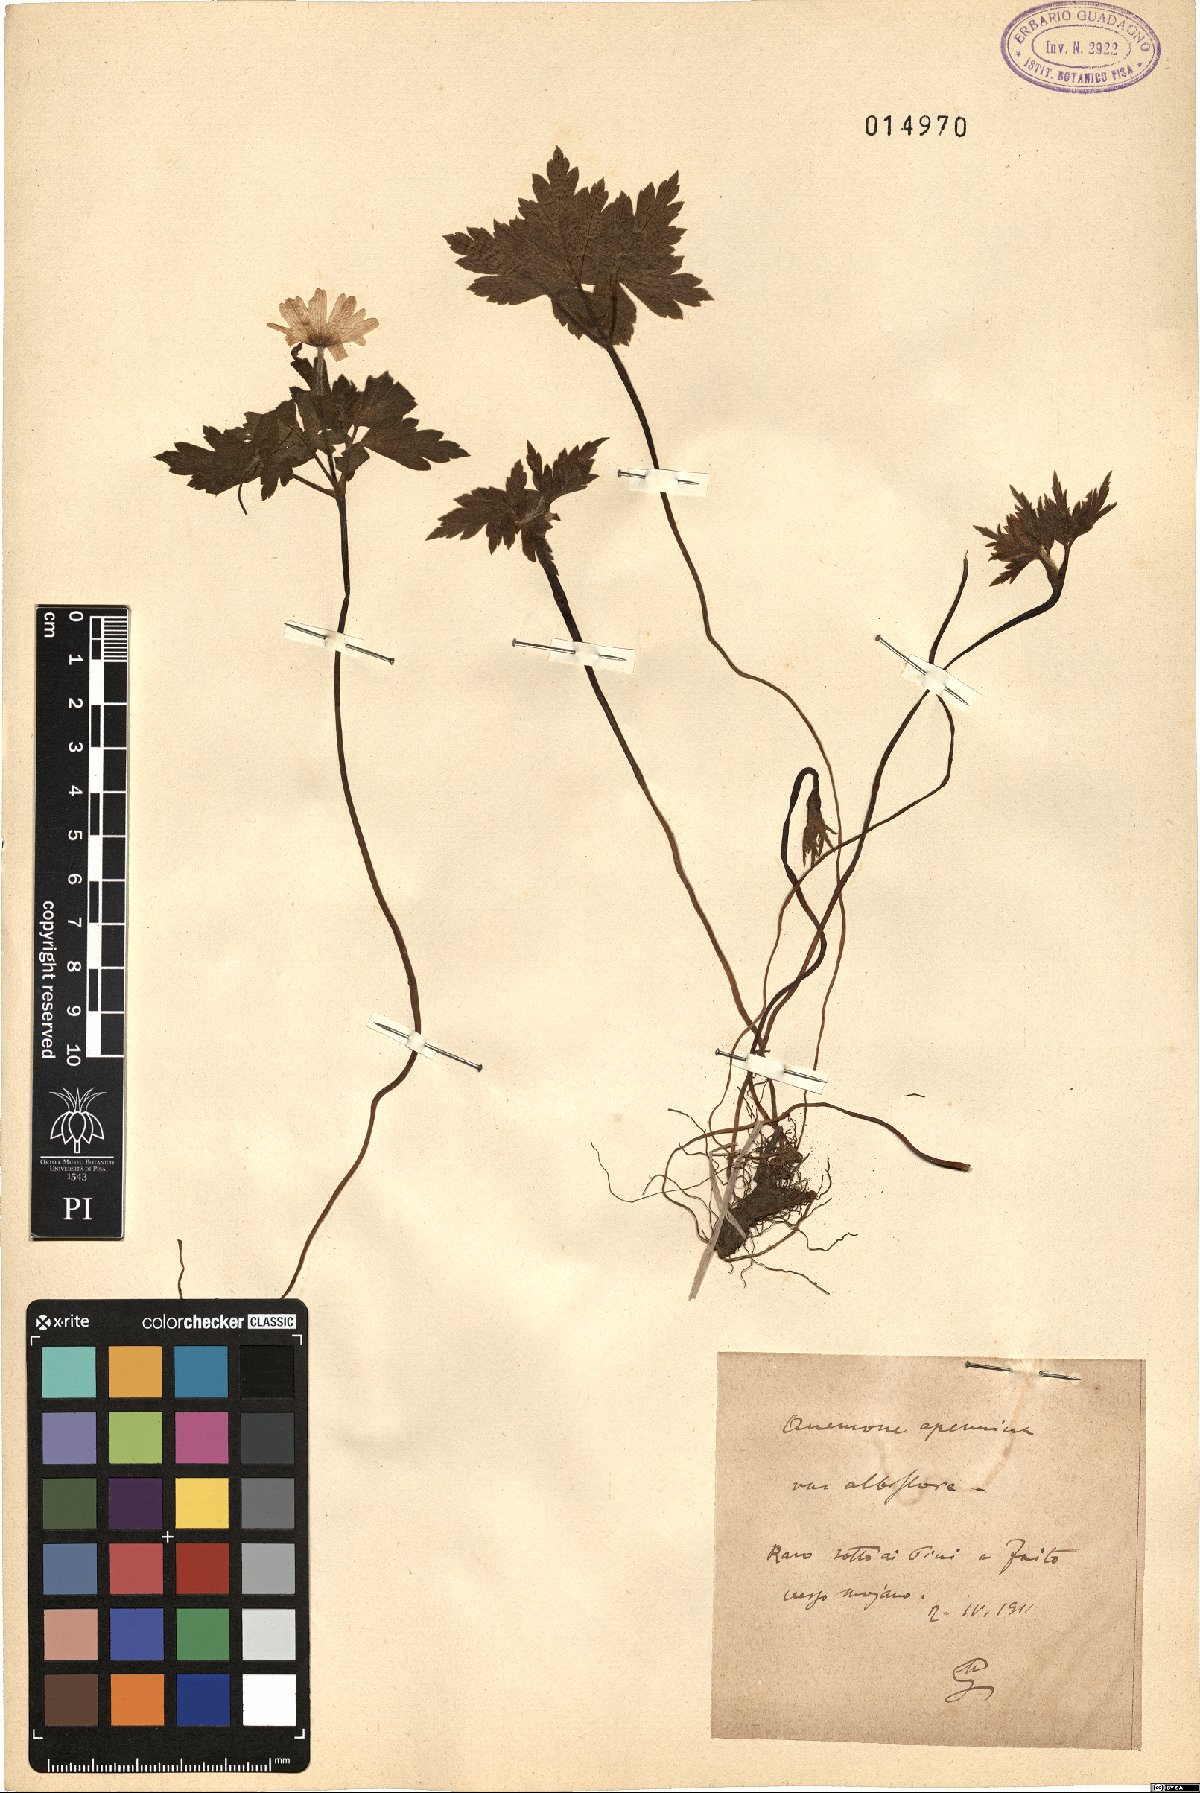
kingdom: Plantae
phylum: Tracheophyta
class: Magnoliopsida
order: Ranunculales
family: Ranunculaceae
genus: Anemone
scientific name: Anemone apennina
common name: Blue anemone
